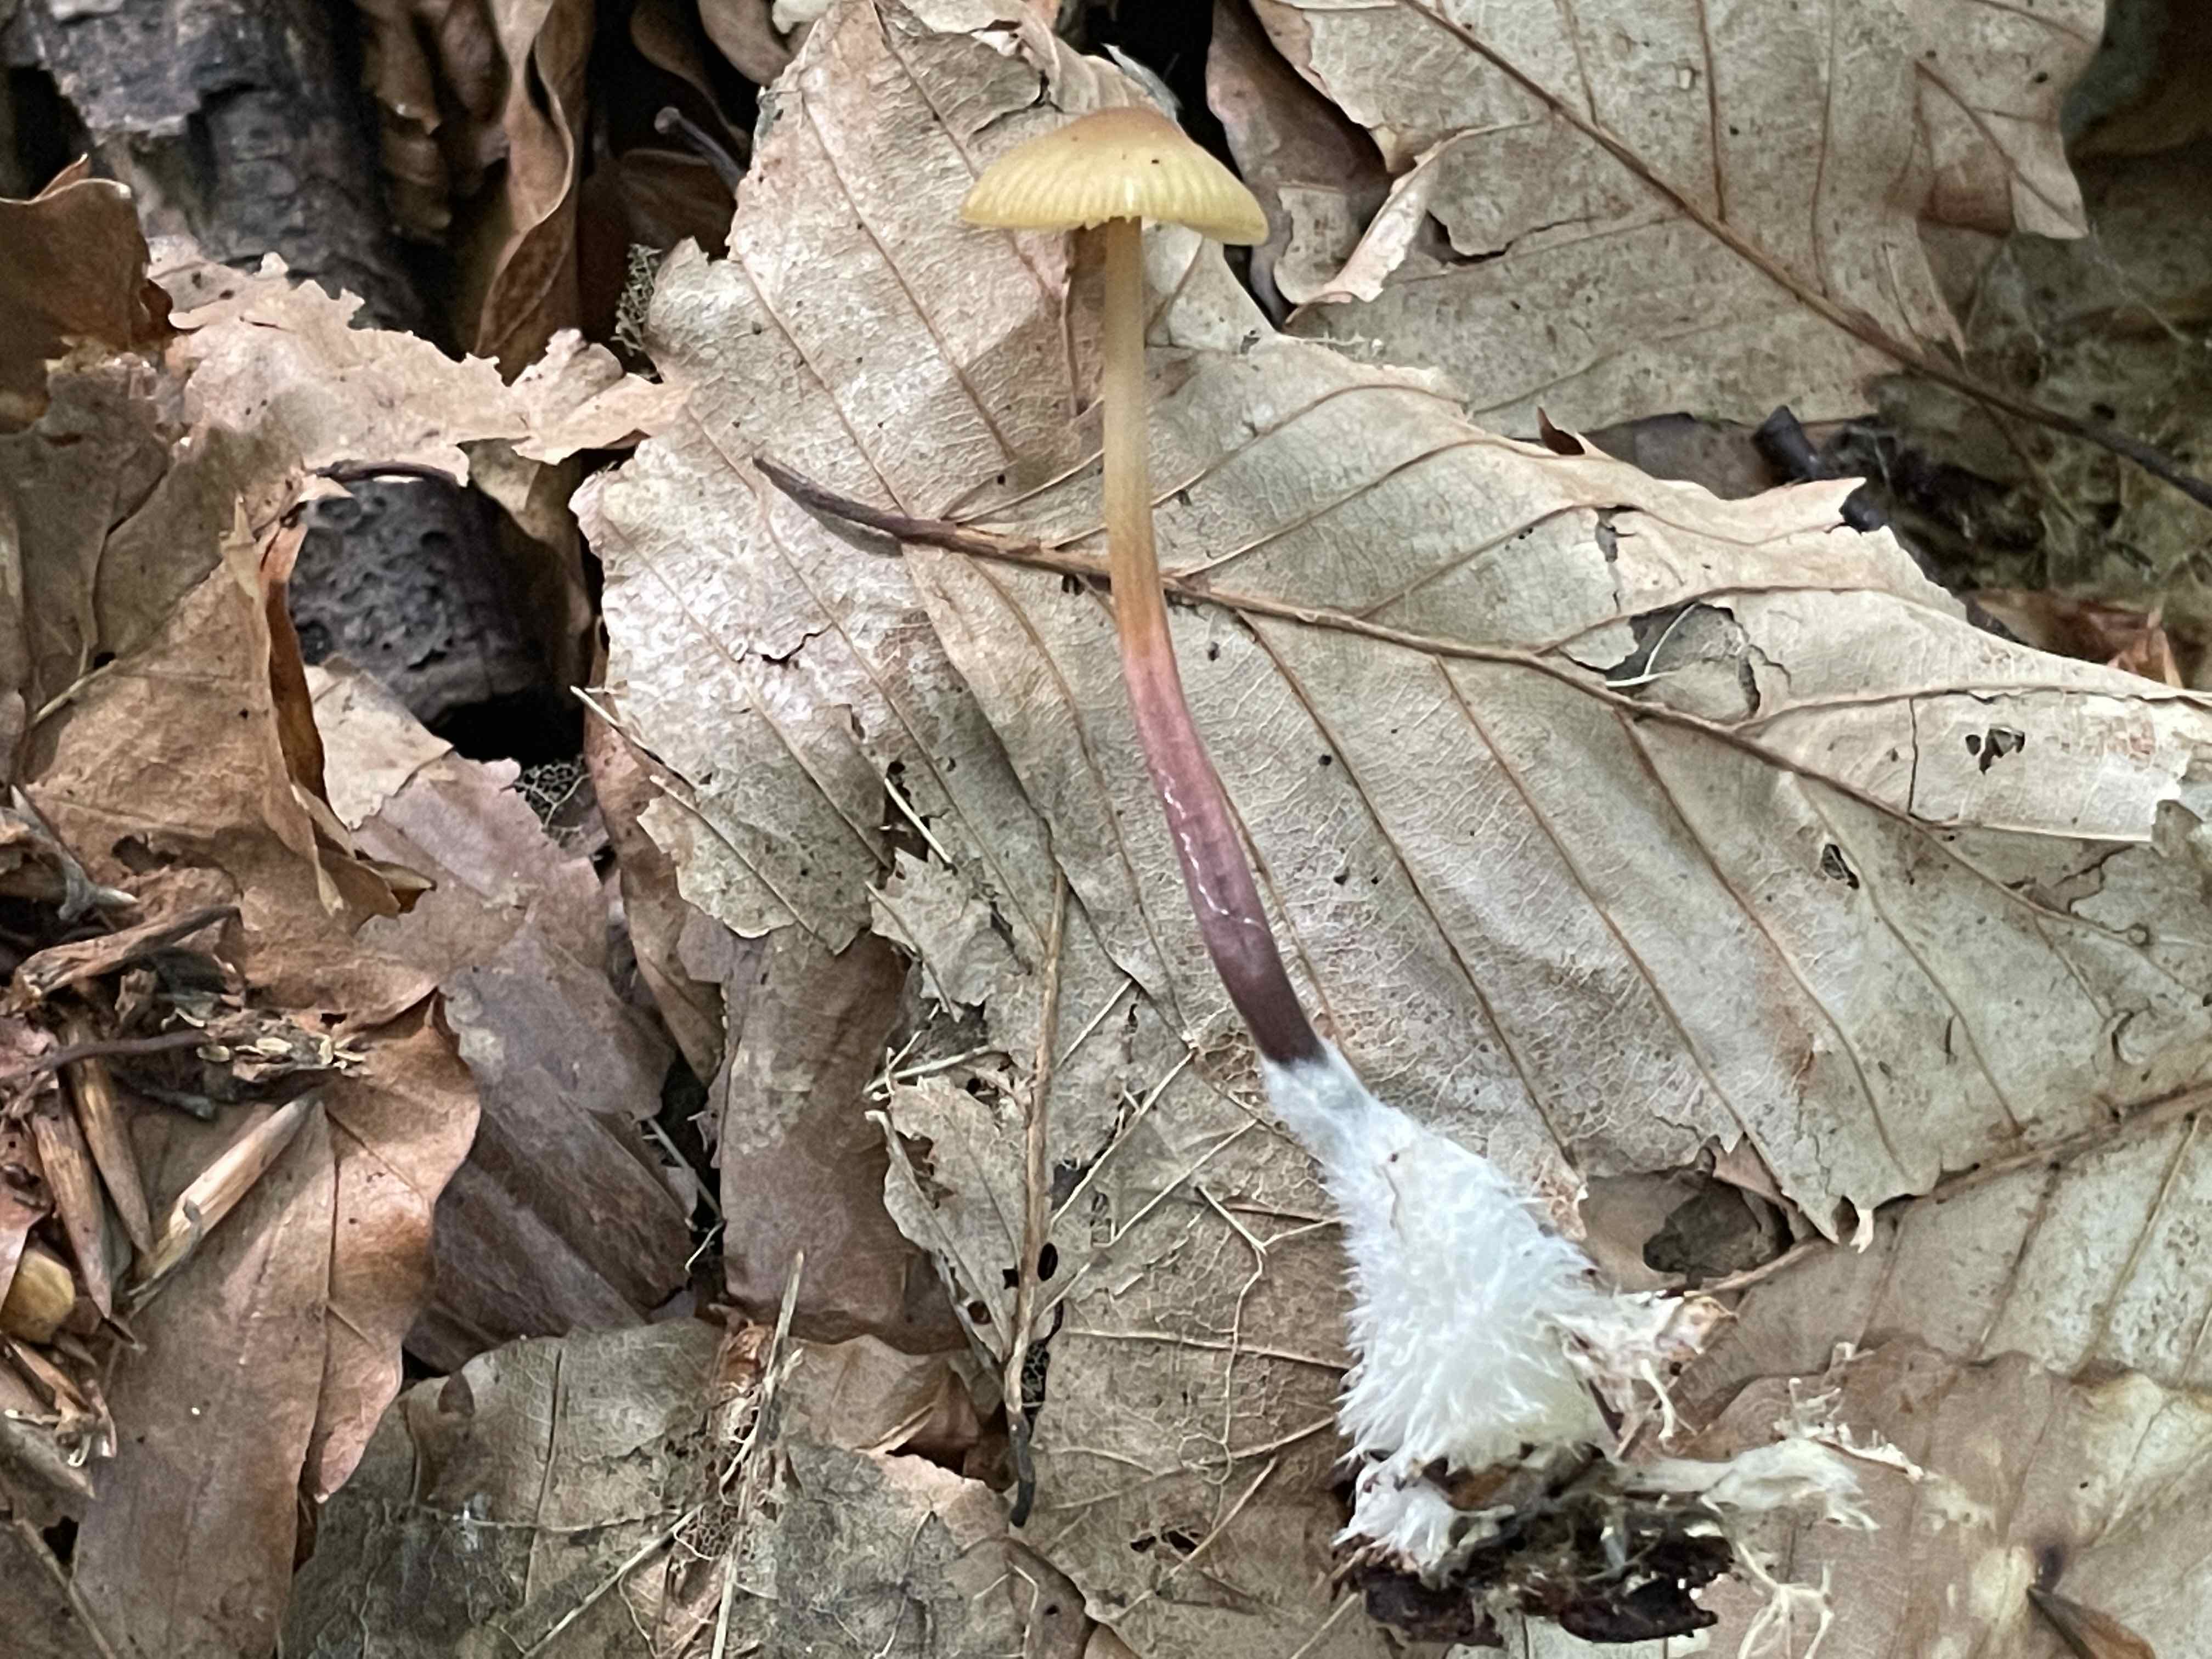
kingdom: Fungi
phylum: Basidiomycota
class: Agaricomycetes
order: Agaricales
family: Marasmiaceae
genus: Marasmius
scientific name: Marasmius torquescens
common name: filtfodet bruskhat
